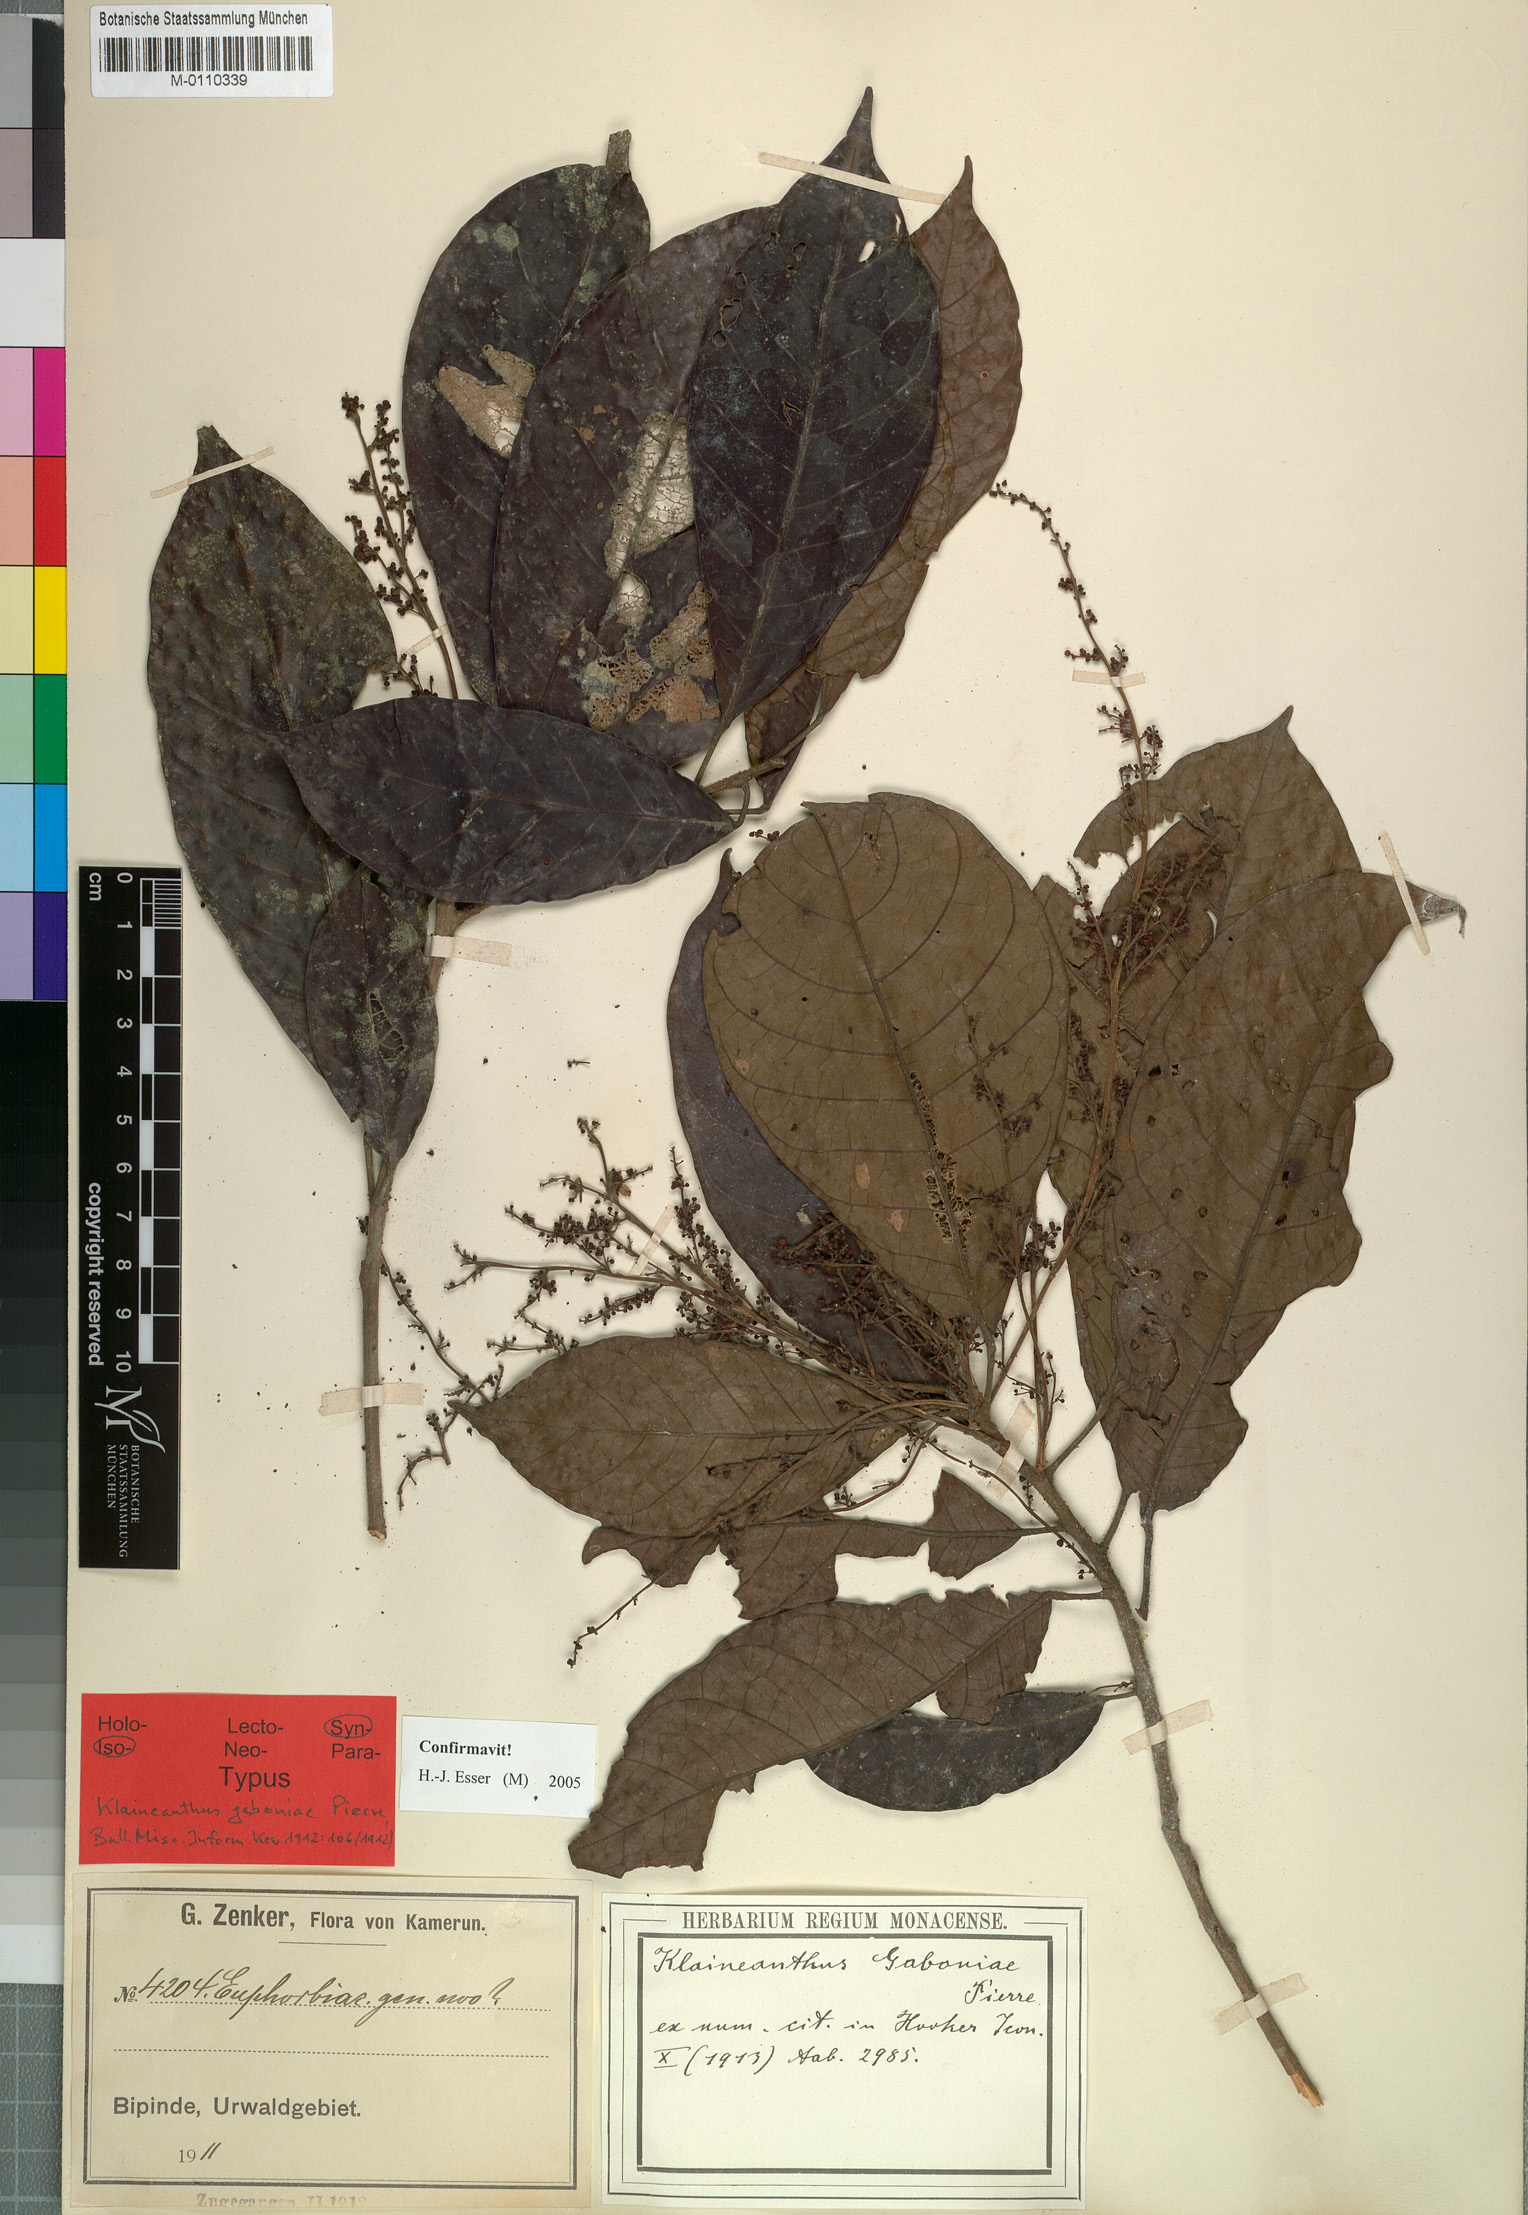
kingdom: Plantae
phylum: Tracheophyta
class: Magnoliopsida
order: Malpighiales
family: Euphorbiaceae
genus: Klaineanthus
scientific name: Klaineanthus gaboniae
